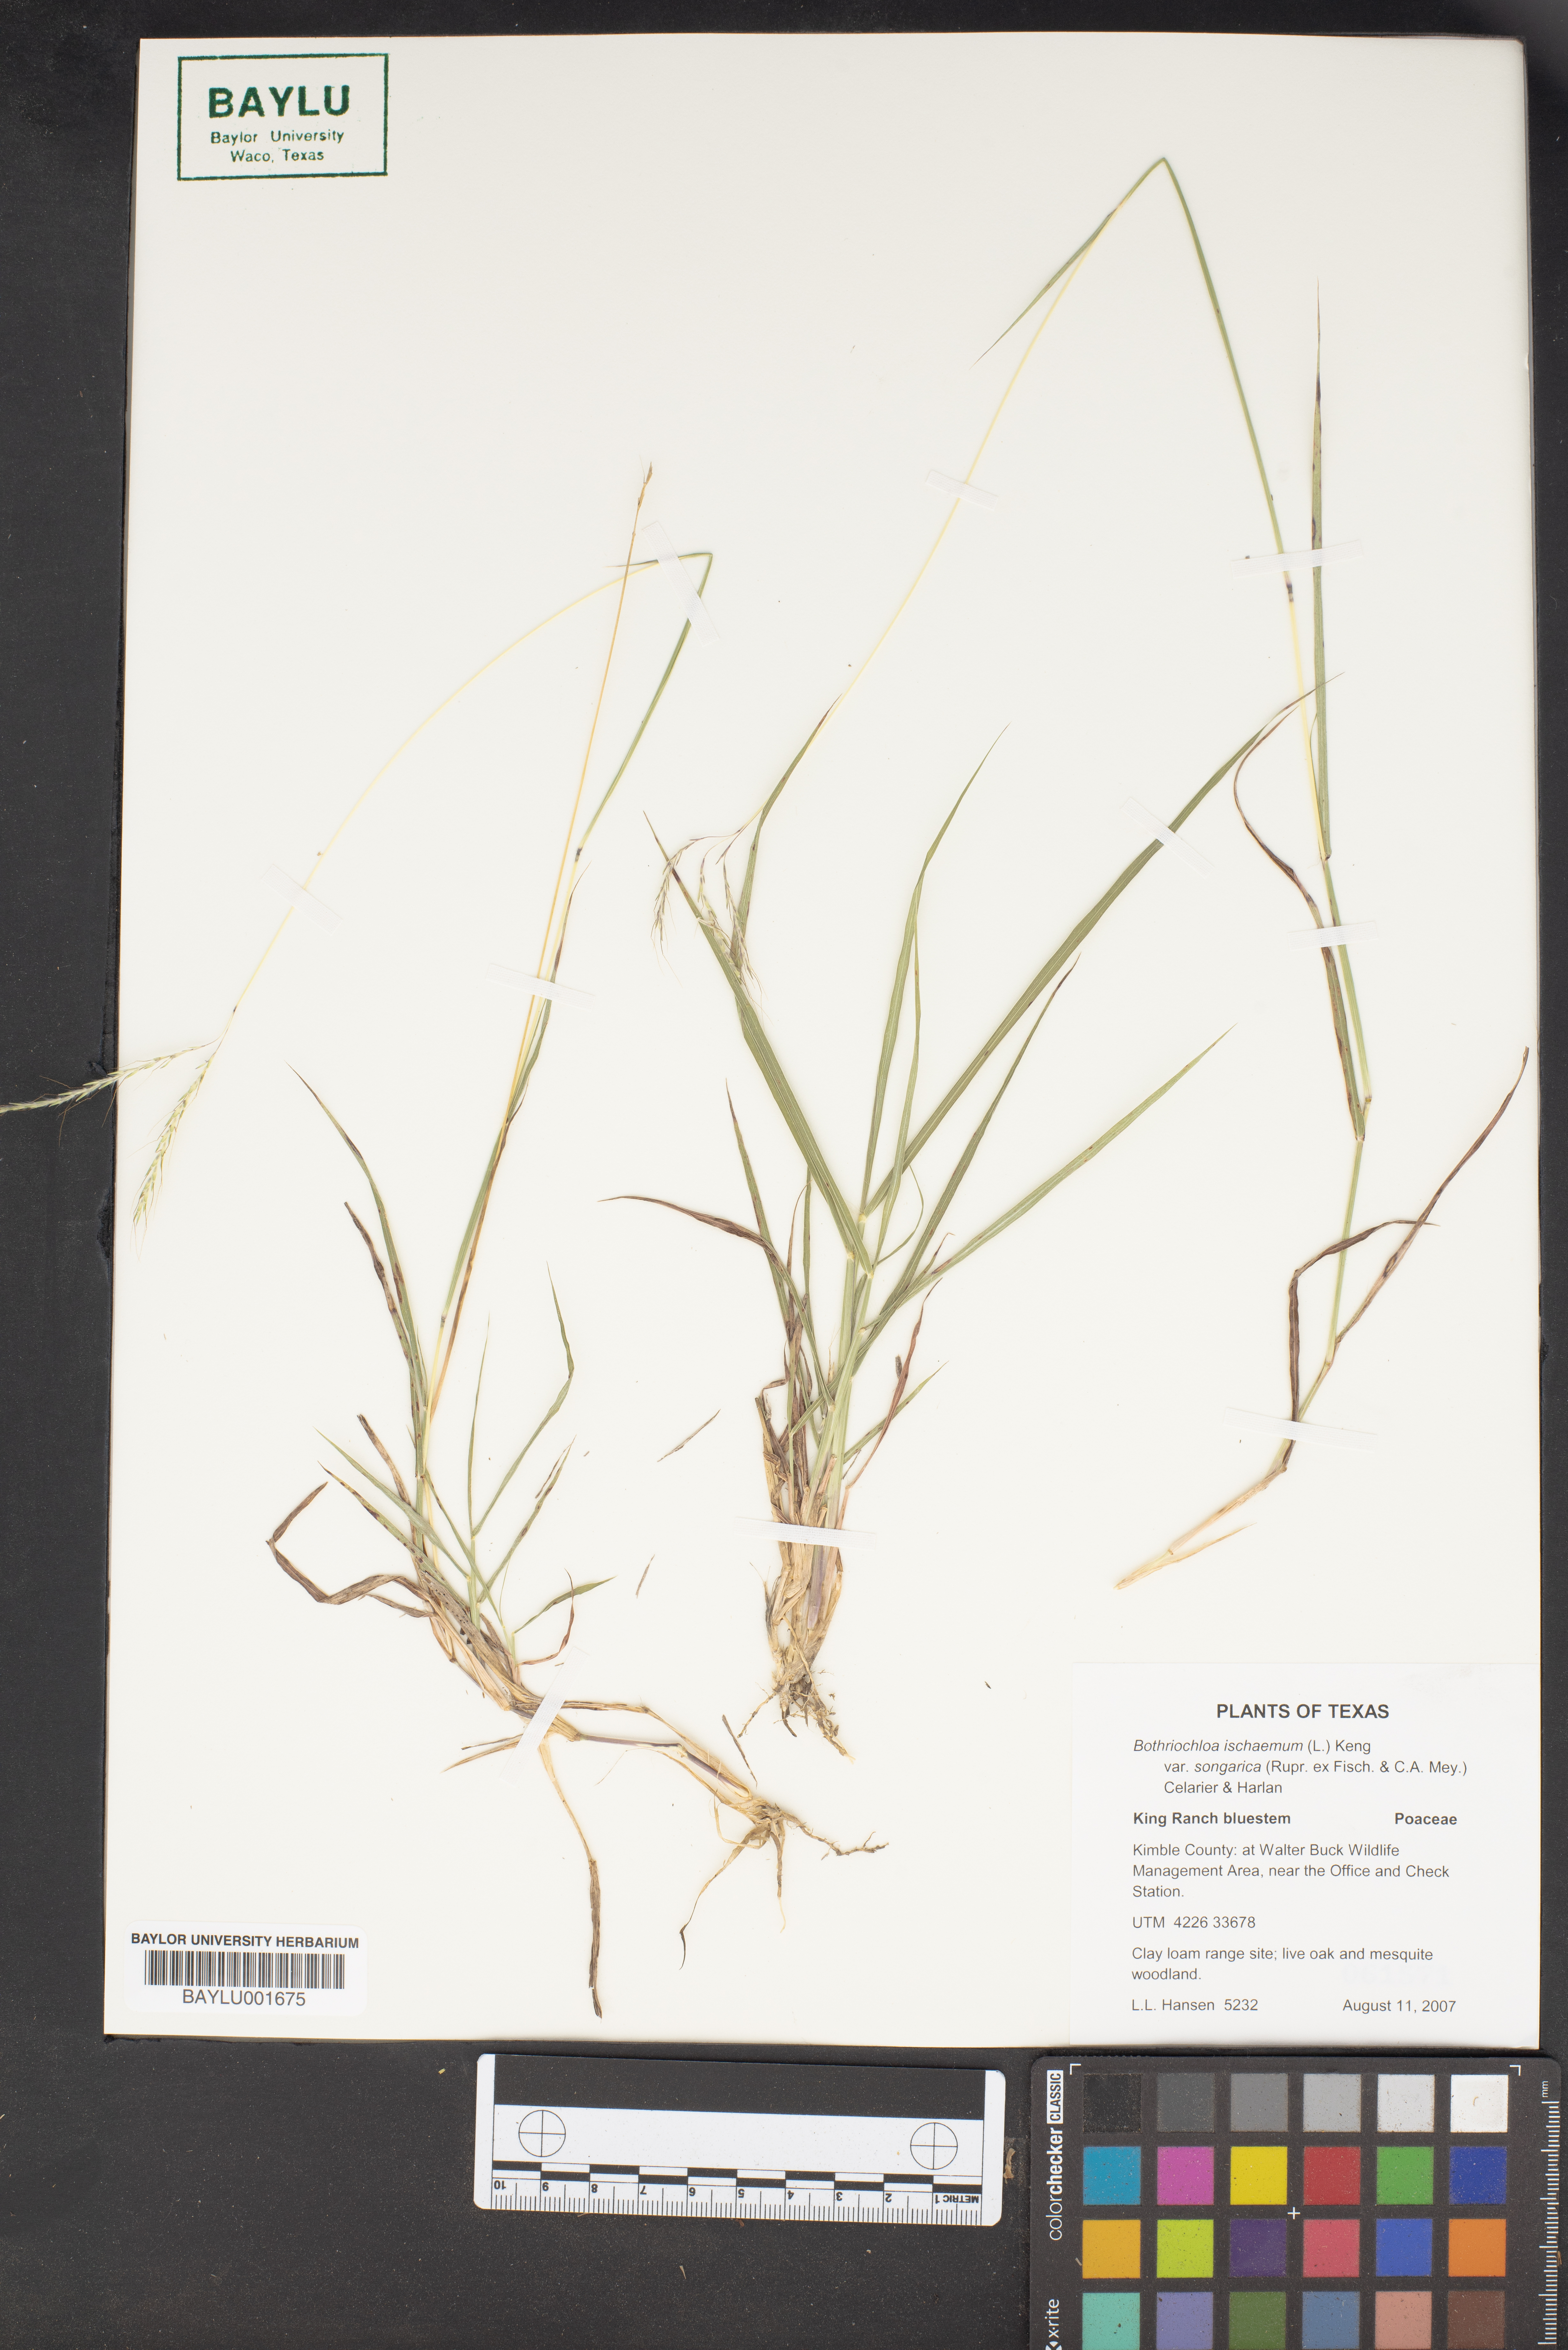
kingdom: Plantae
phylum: Tracheophyta
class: Liliopsida
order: Poales
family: Poaceae
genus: Bothriochloa
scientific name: Bothriochloa ischaemum
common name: Yellow bluestem
